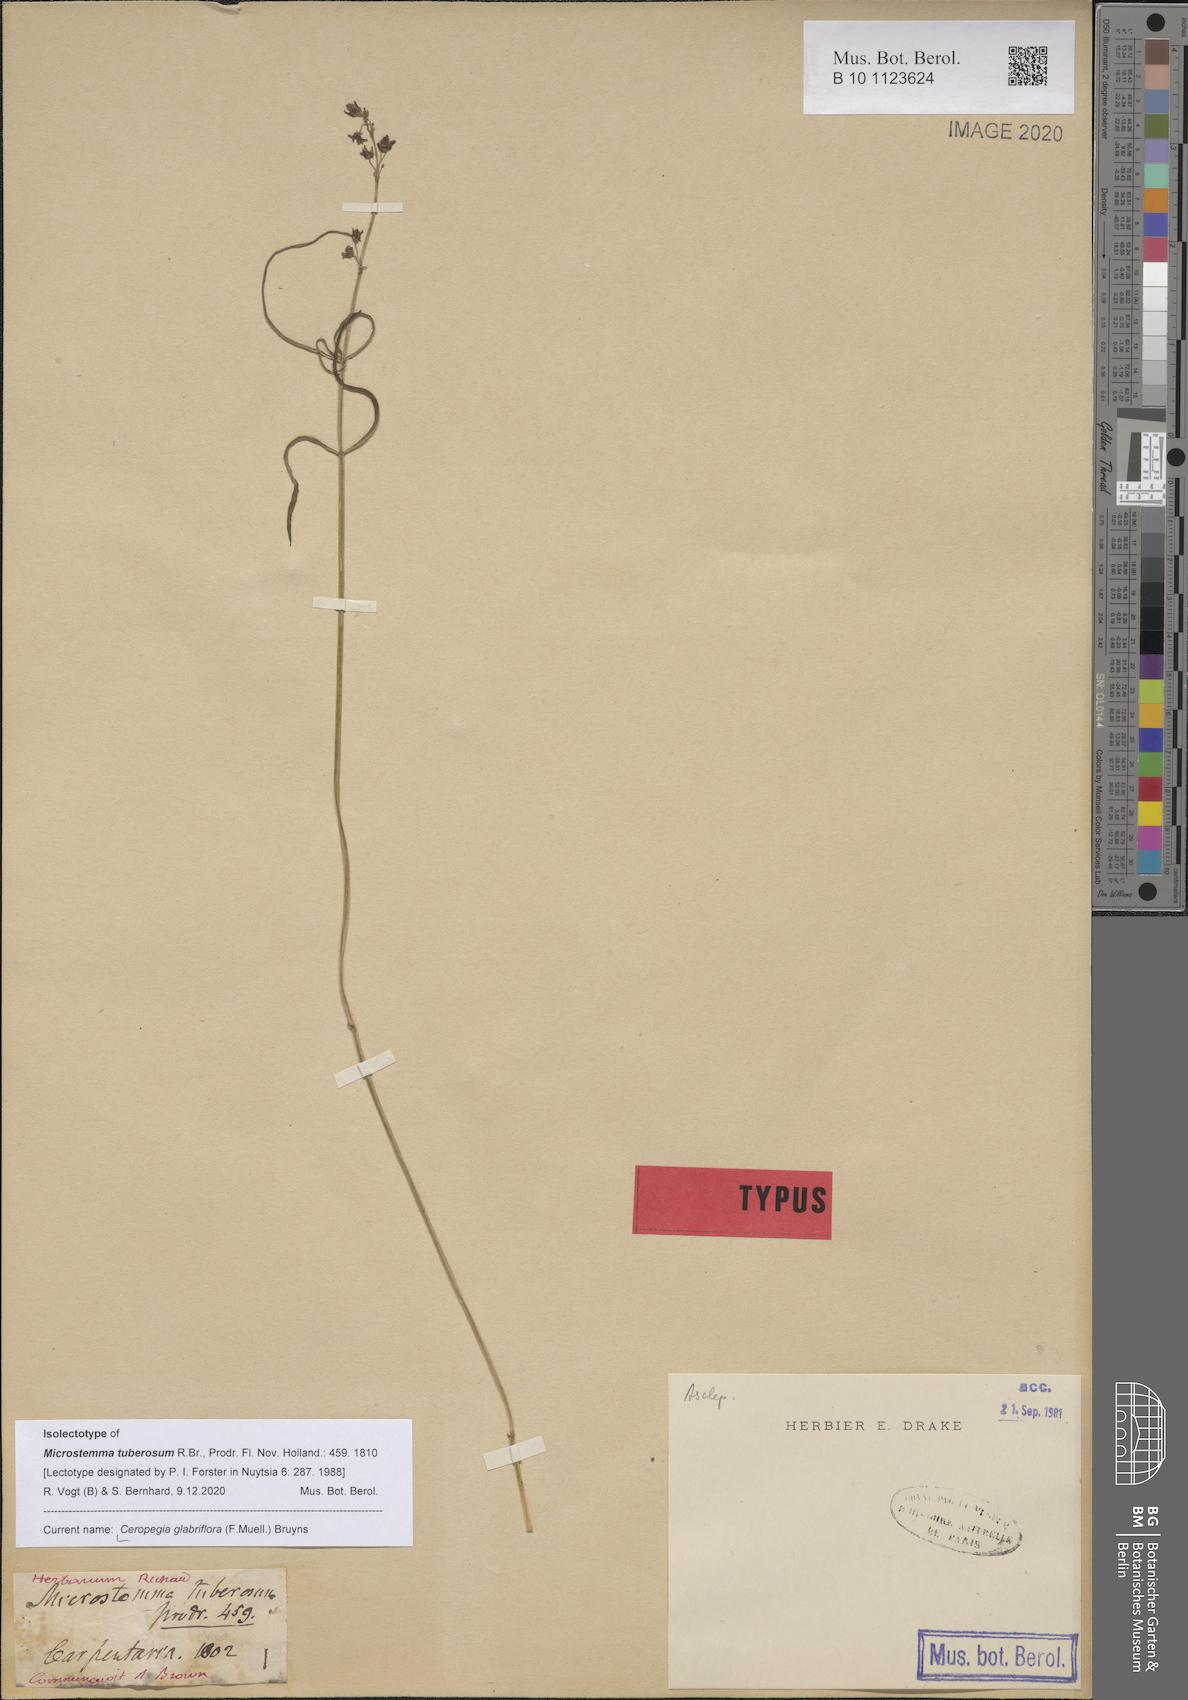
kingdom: Plantae
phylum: Tracheophyta
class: Magnoliopsida
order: Gentianales
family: Apocynaceae
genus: Ceropegia
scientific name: Ceropegia glabriflora
